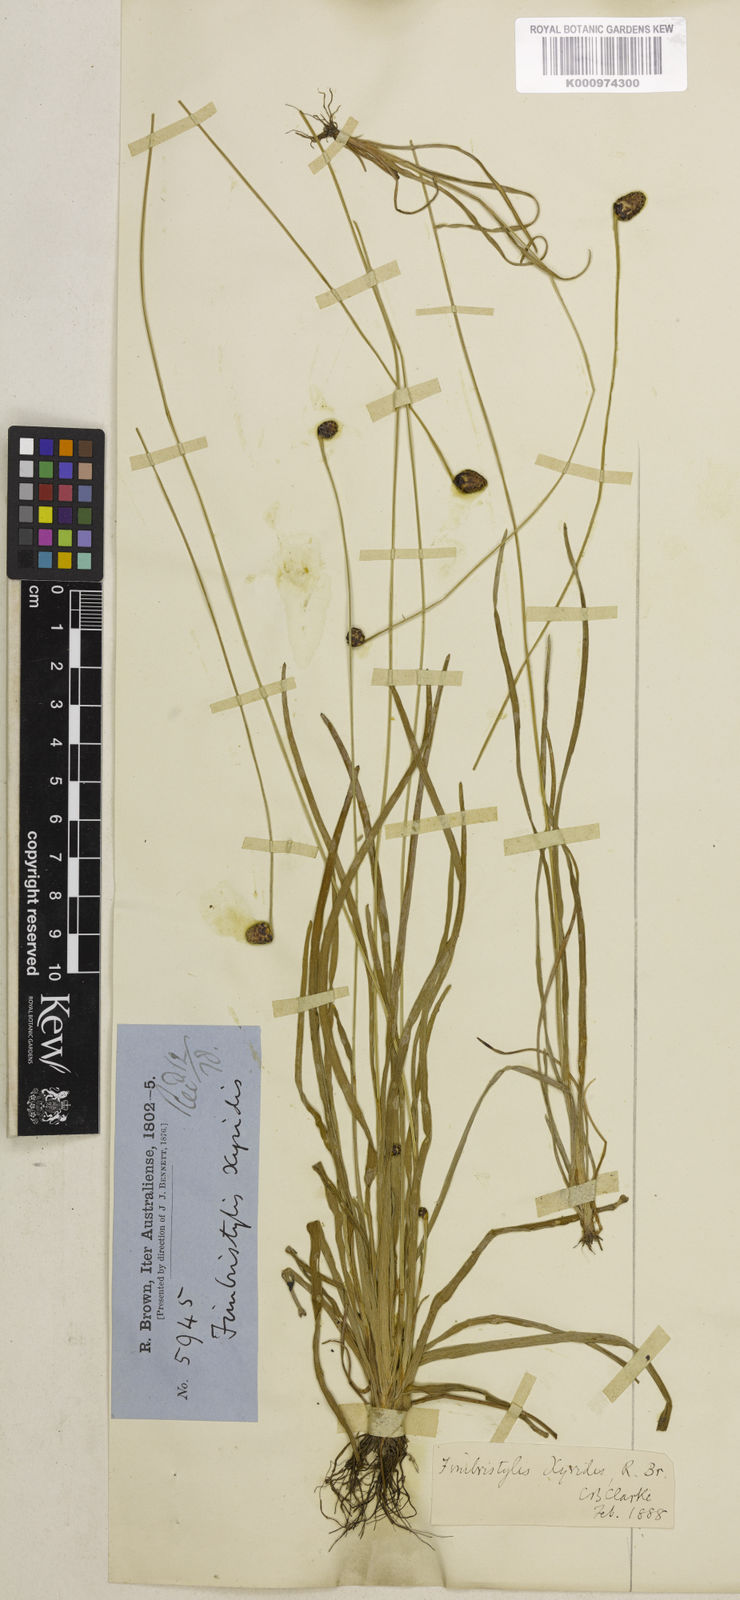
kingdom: Plantae
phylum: Tracheophyta
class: Liliopsida
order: Poales
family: Cyperaceae
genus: Fimbristylis
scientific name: Fimbristylis xyridis
